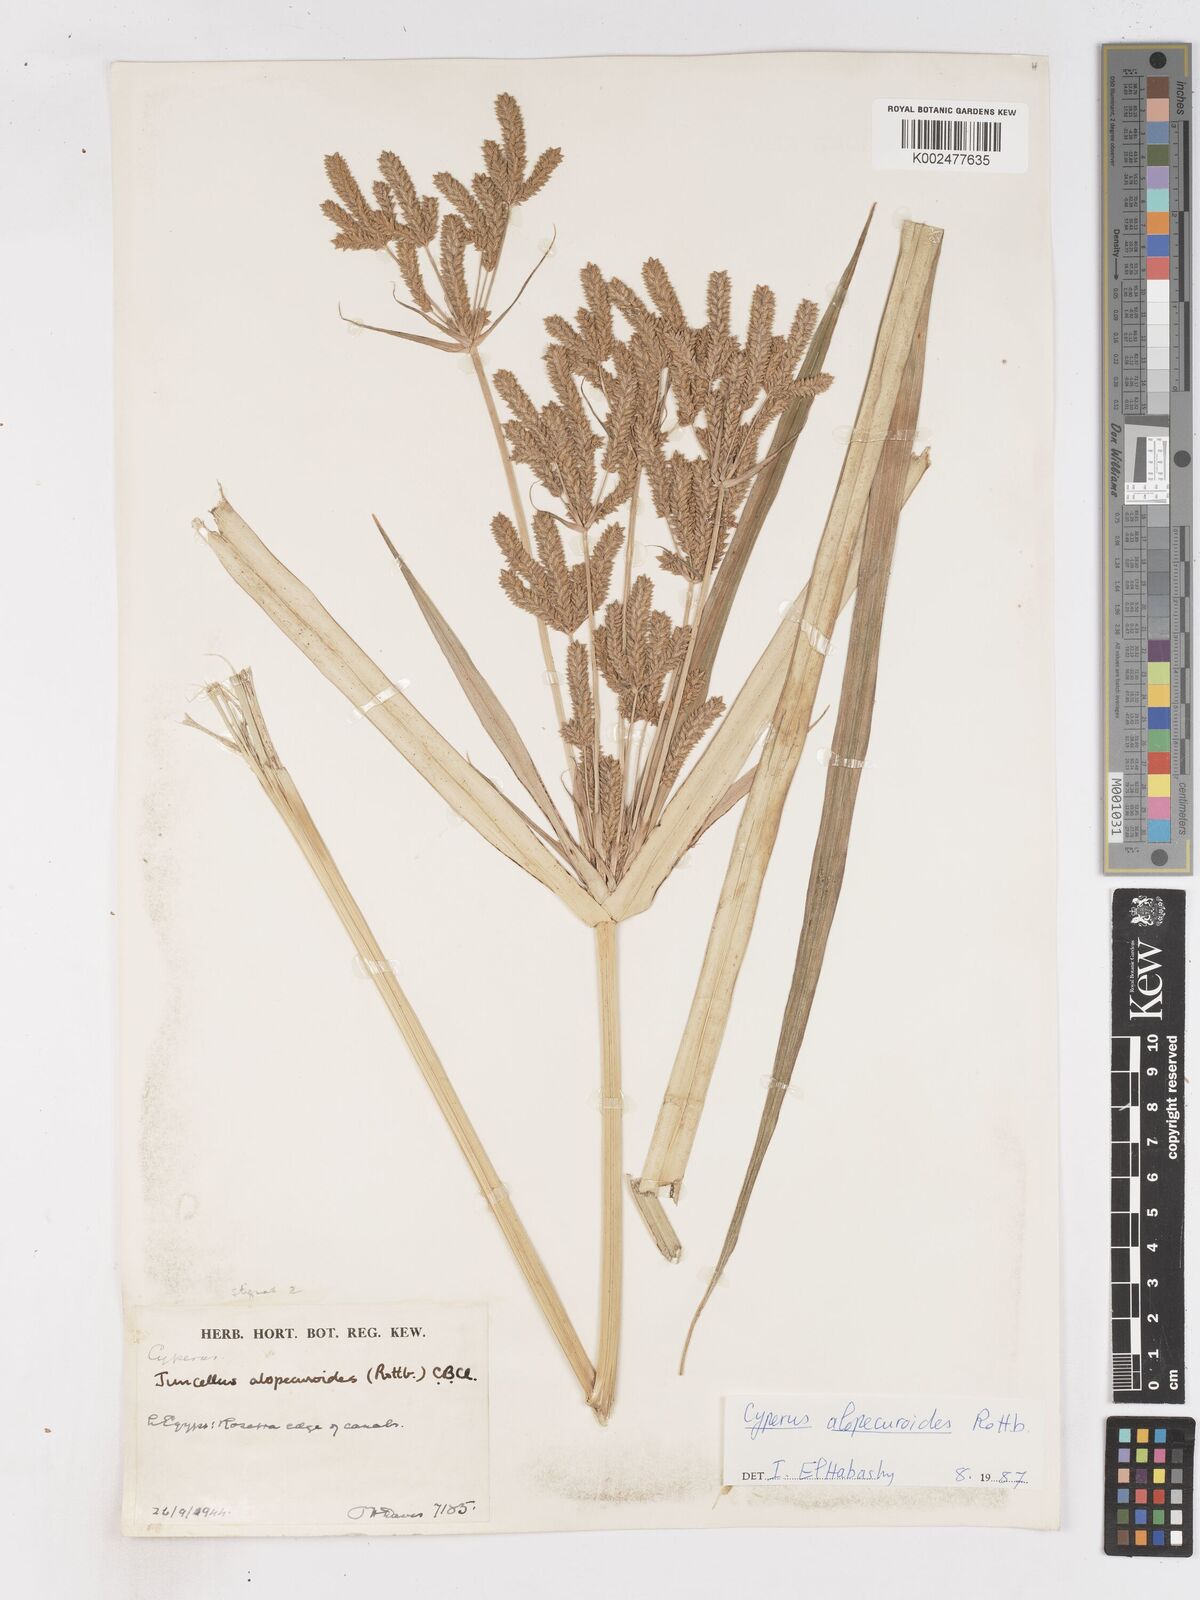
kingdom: Plantae
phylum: Tracheophyta
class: Liliopsida
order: Poales
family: Cyperaceae
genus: Cyperus
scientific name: Cyperus alopecuroides
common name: Foxtail flatsedge
